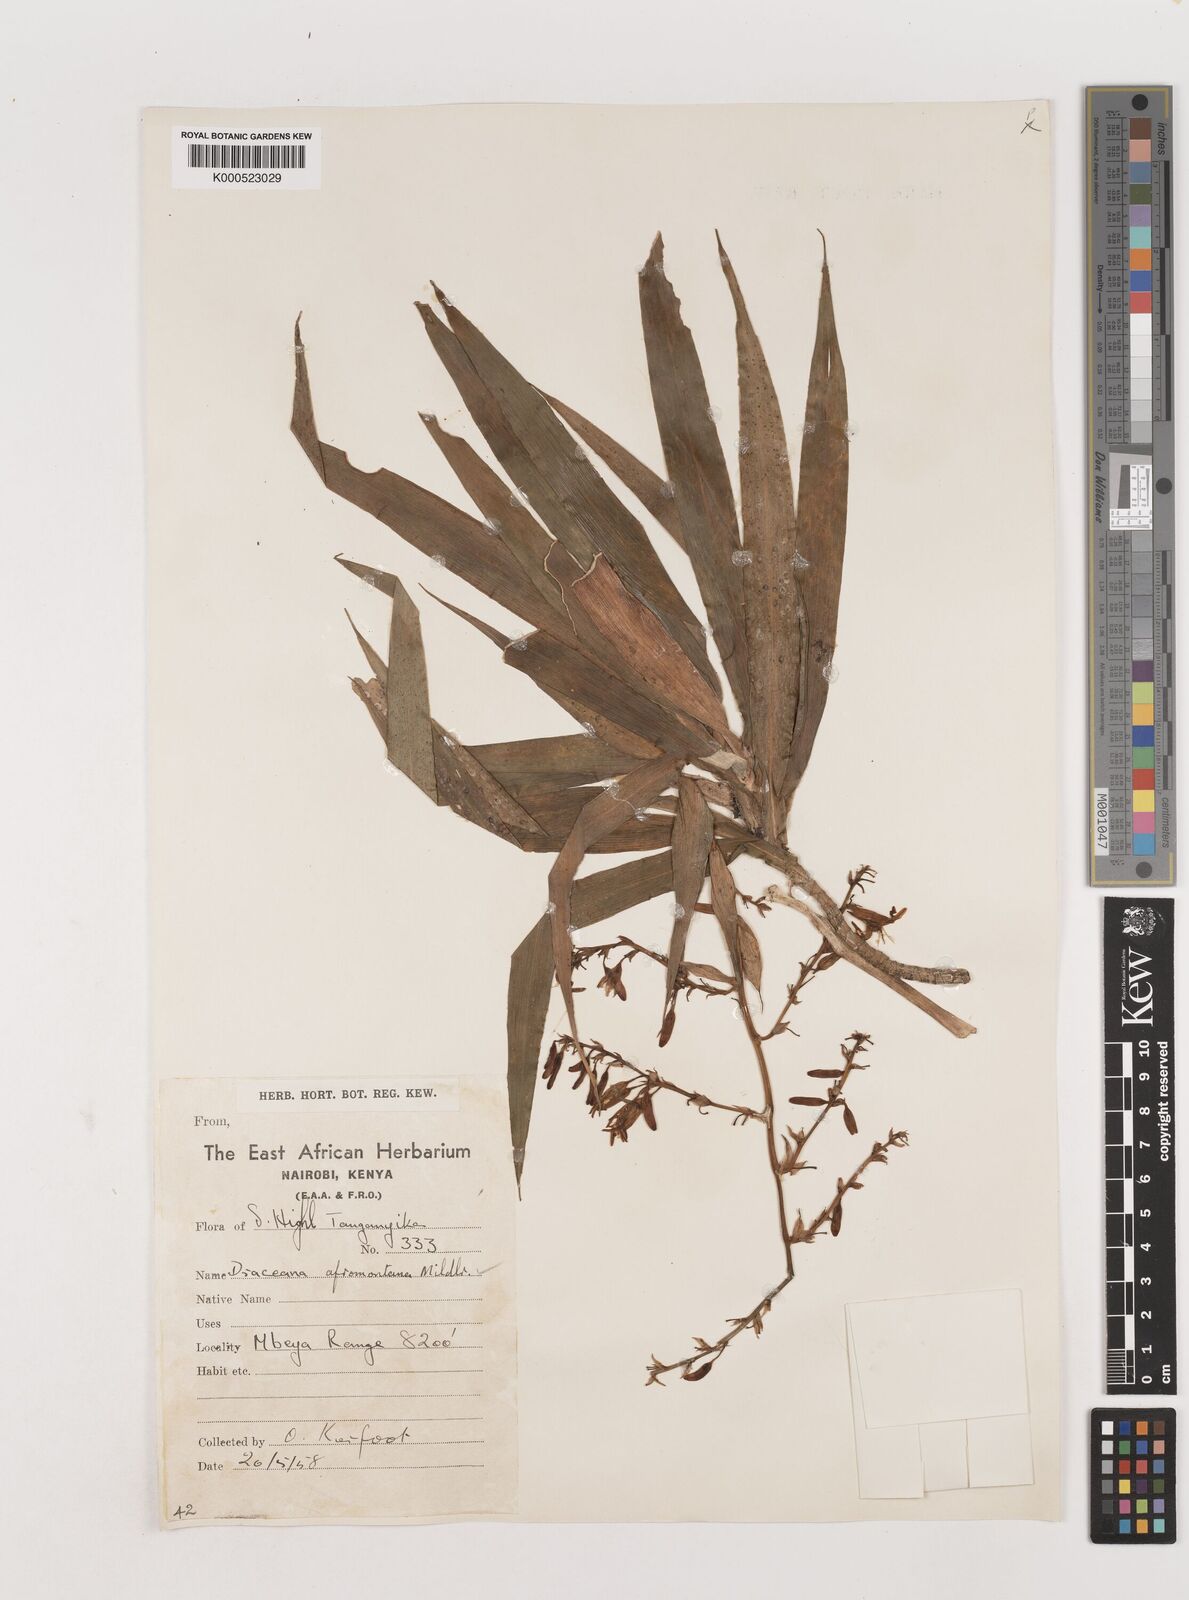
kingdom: Plantae
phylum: Tracheophyta
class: Liliopsida
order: Asparagales
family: Asparagaceae
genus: Dracaena
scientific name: Dracaena afromontana
